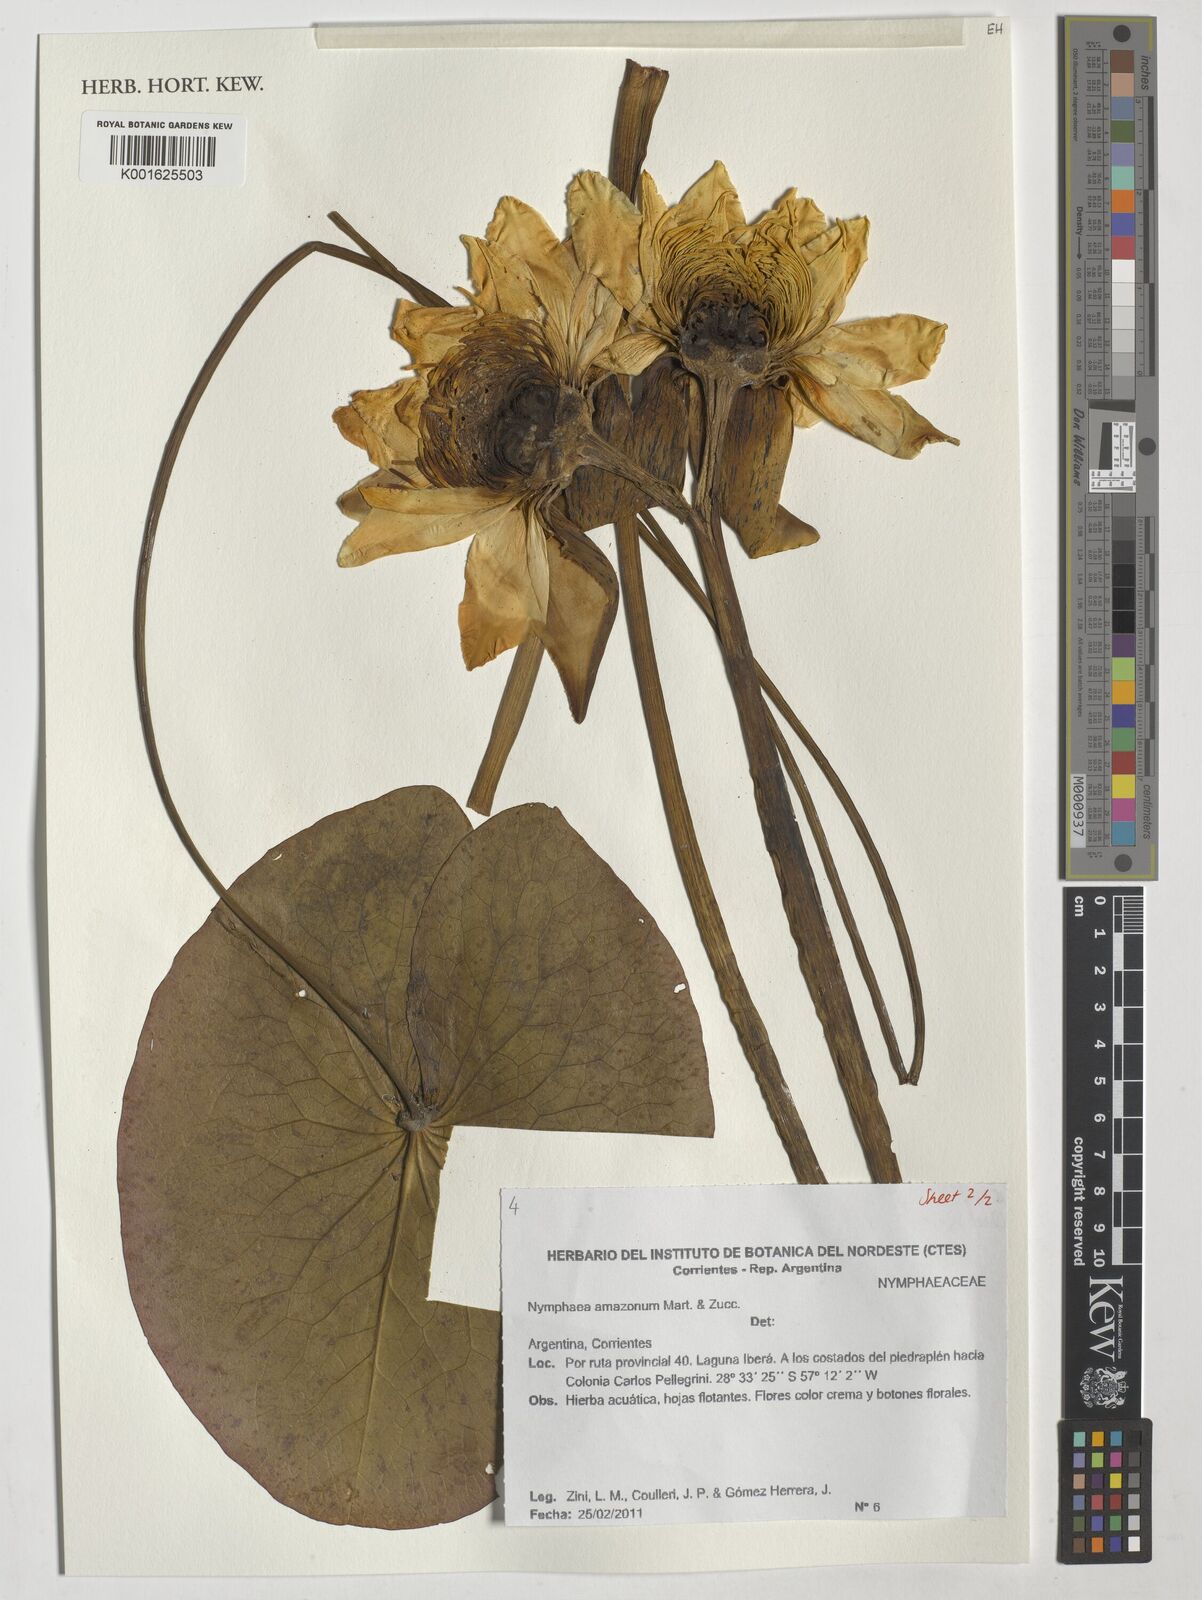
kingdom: Plantae
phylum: Tracheophyta
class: Magnoliopsida
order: Nymphaeales
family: Nymphaeaceae
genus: Nymphaea
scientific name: Nymphaea amazonum
